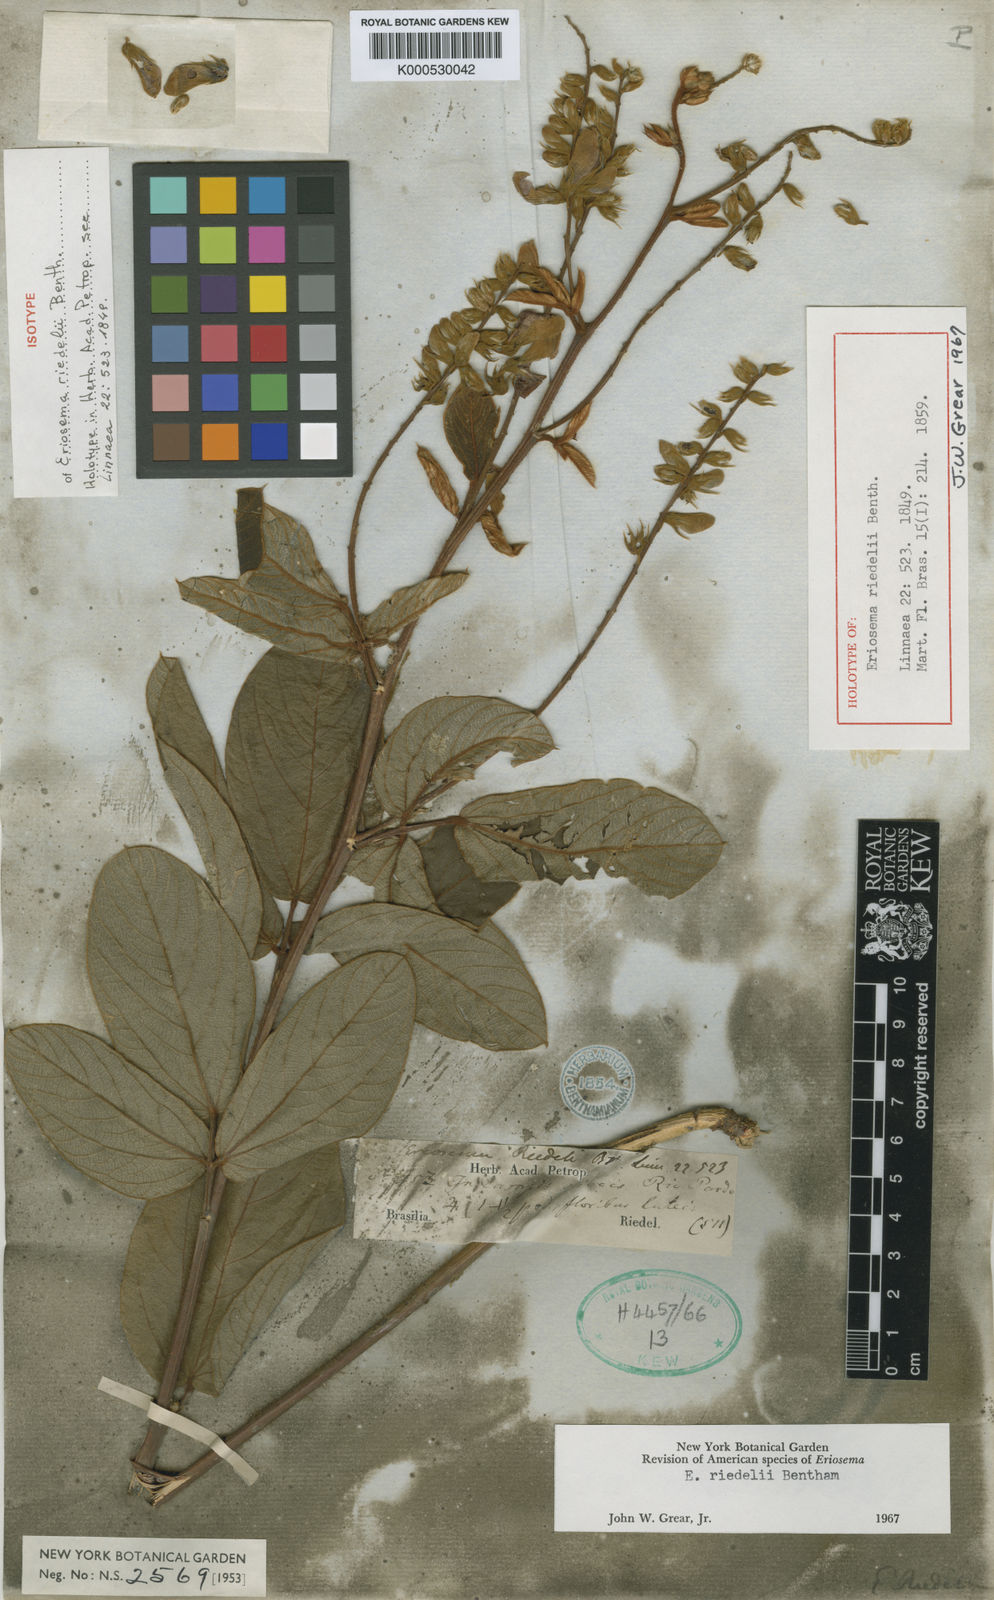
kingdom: Plantae
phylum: Tracheophyta
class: Magnoliopsida
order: Fabales
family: Fabaceae
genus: Eriosema
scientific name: Eriosema riedelii
